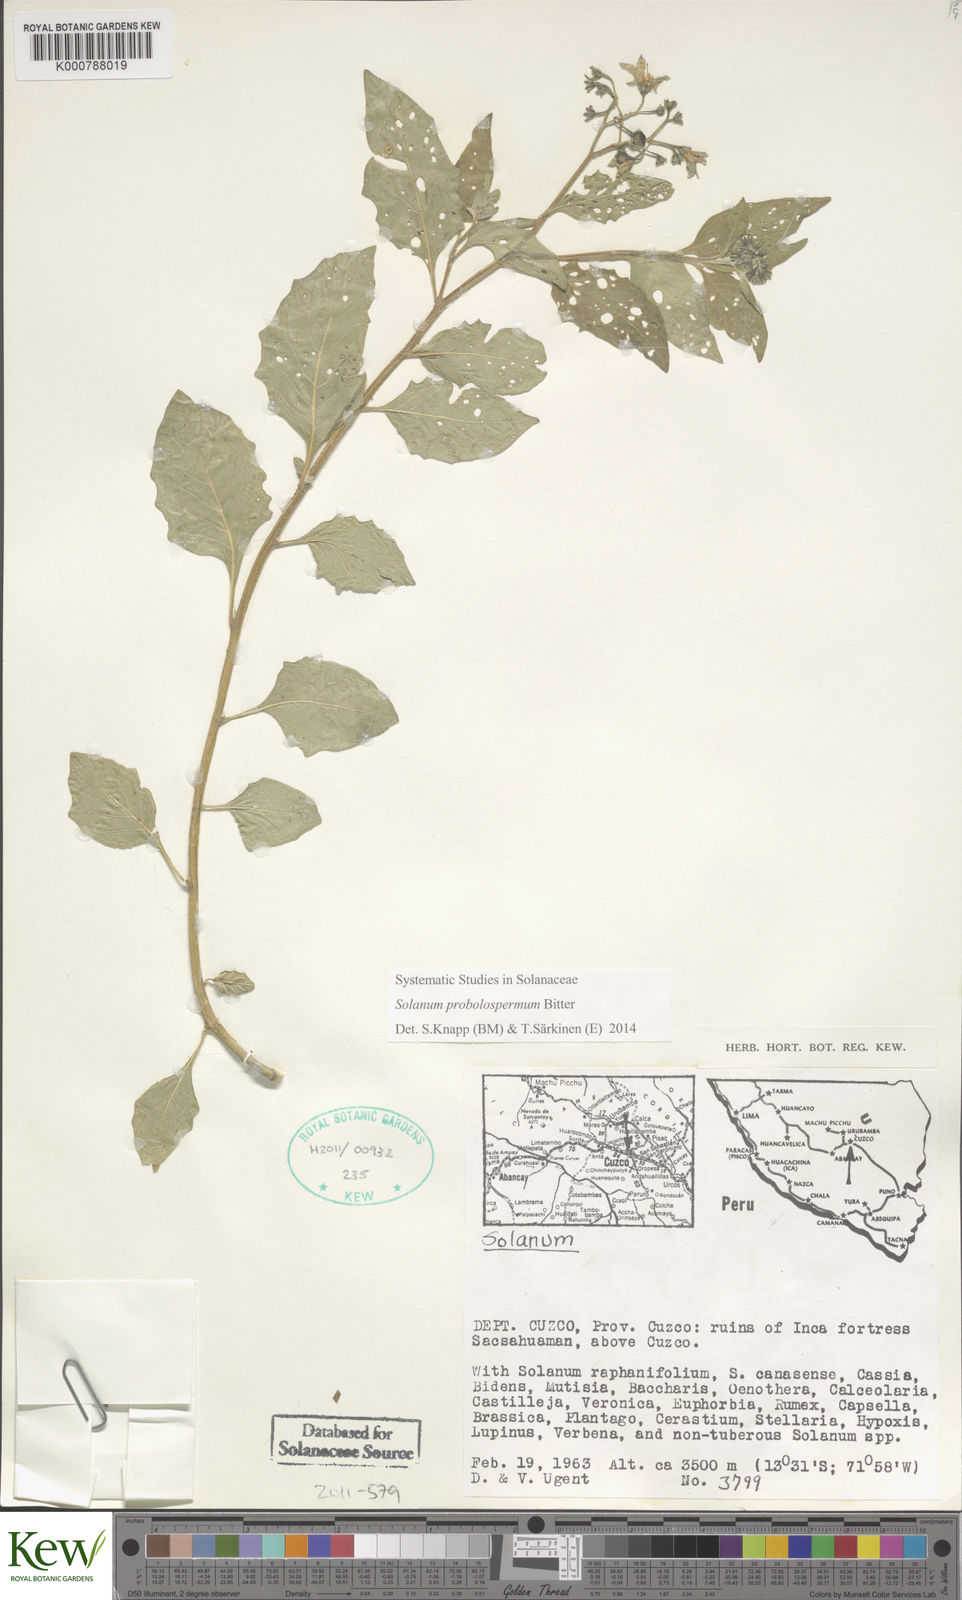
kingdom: Plantae
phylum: Tracheophyta
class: Magnoliopsida
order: Solanales
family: Solanaceae
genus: Solanum
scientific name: Solanum probolospermum
